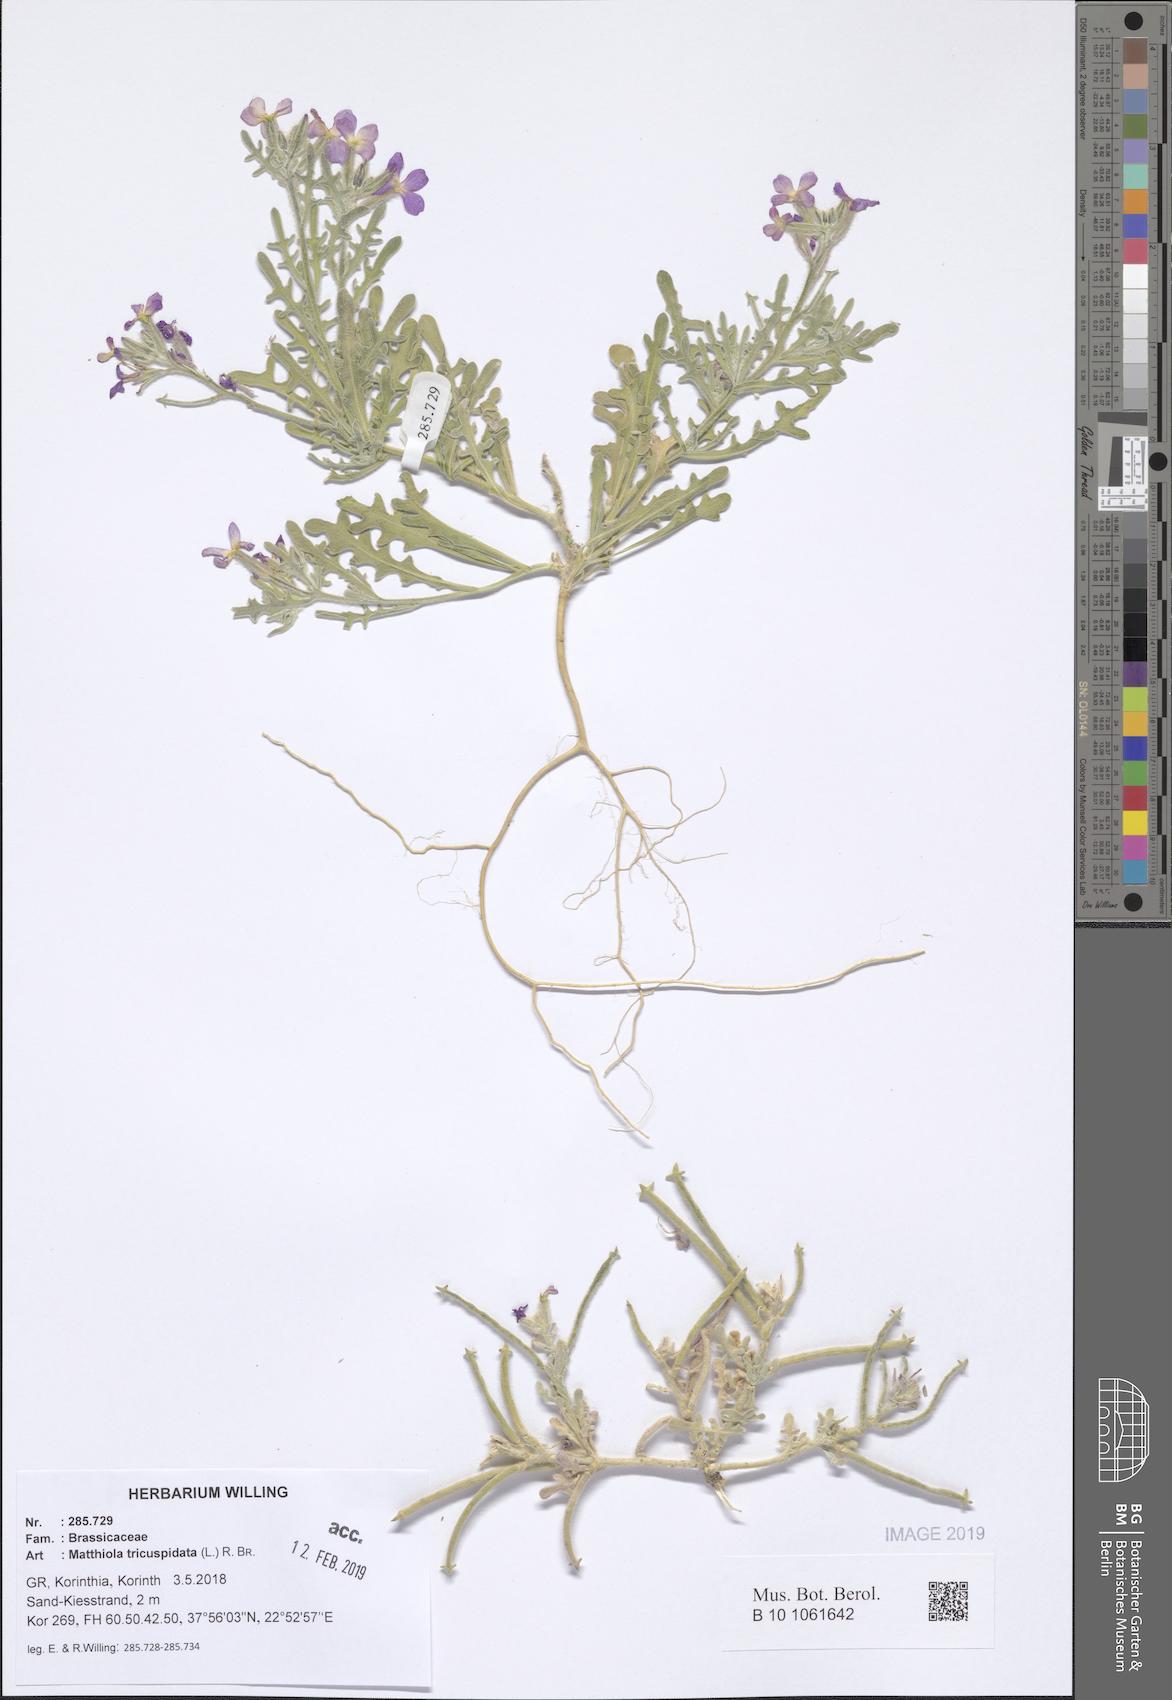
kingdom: Plantae
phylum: Tracheophyta
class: Magnoliopsida
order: Brassicales
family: Brassicaceae
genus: Matthiola
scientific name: Matthiola tricuspidata
